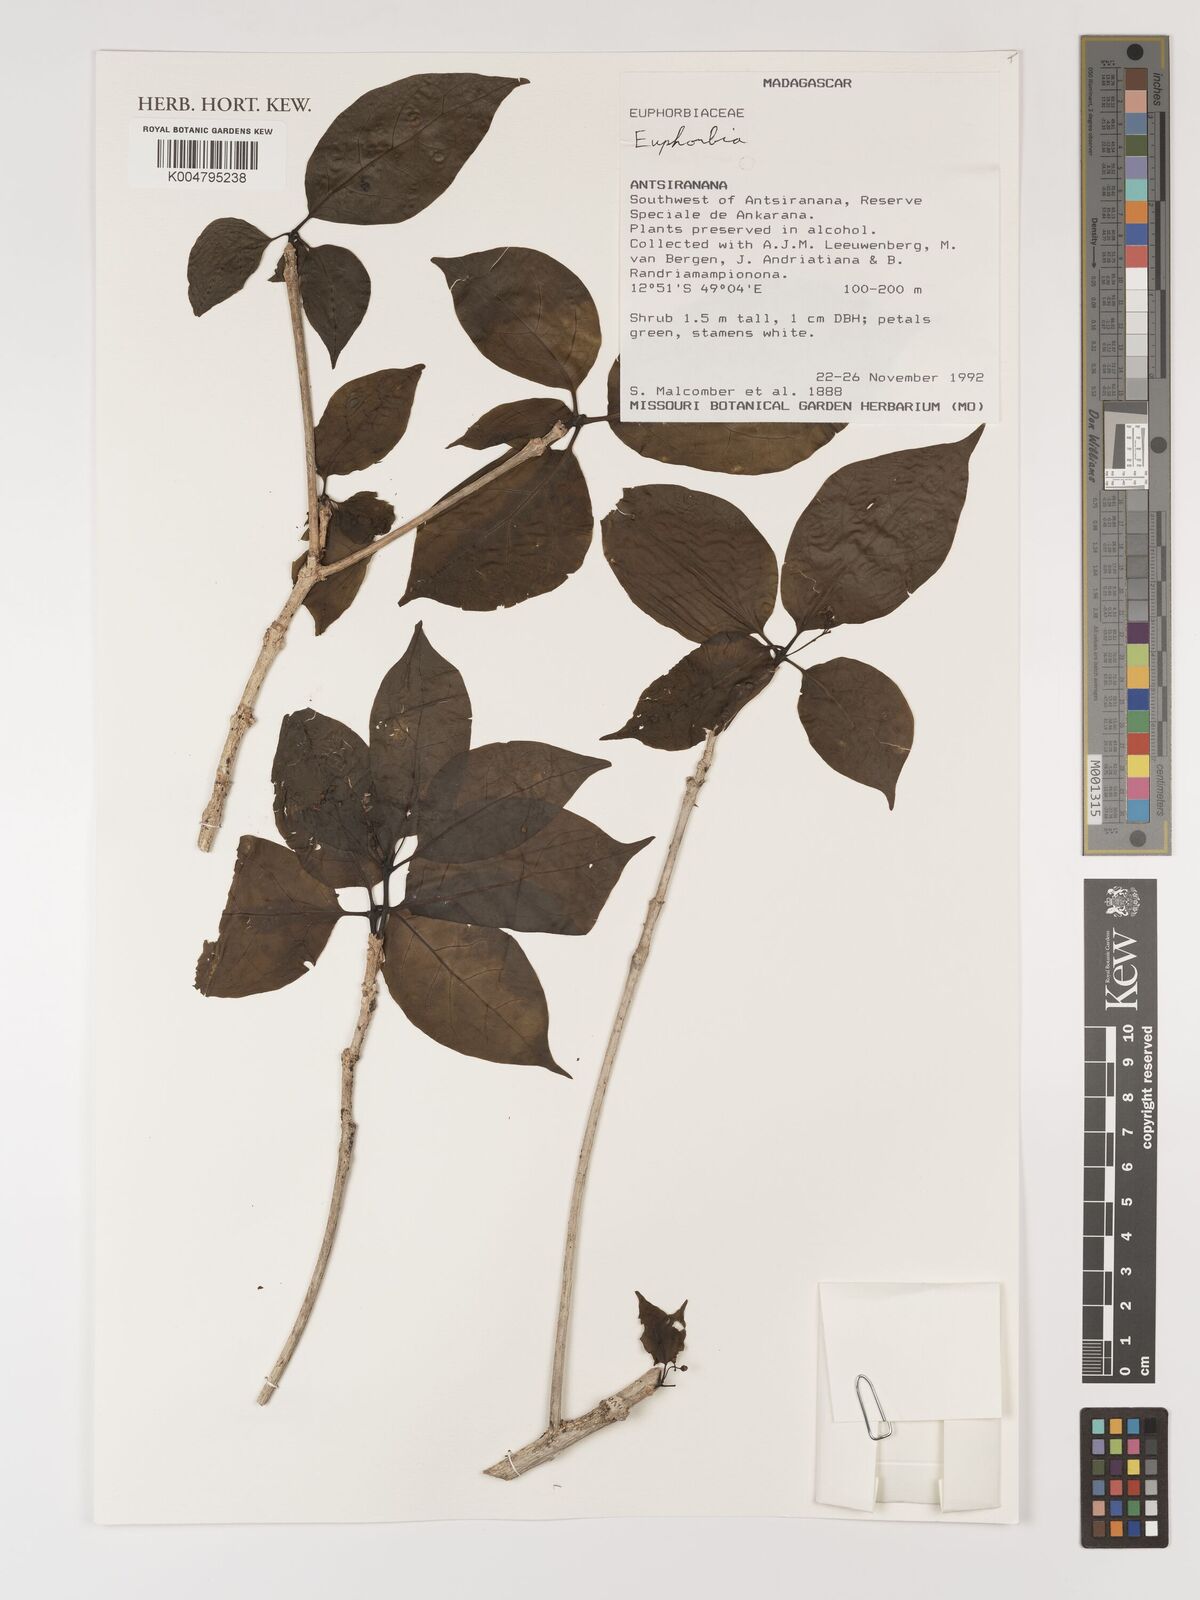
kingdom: Plantae
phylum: Tracheophyta
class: Magnoliopsida
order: Malpighiales
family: Euphorbiaceae
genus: Euphorbia
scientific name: Euphorbia
